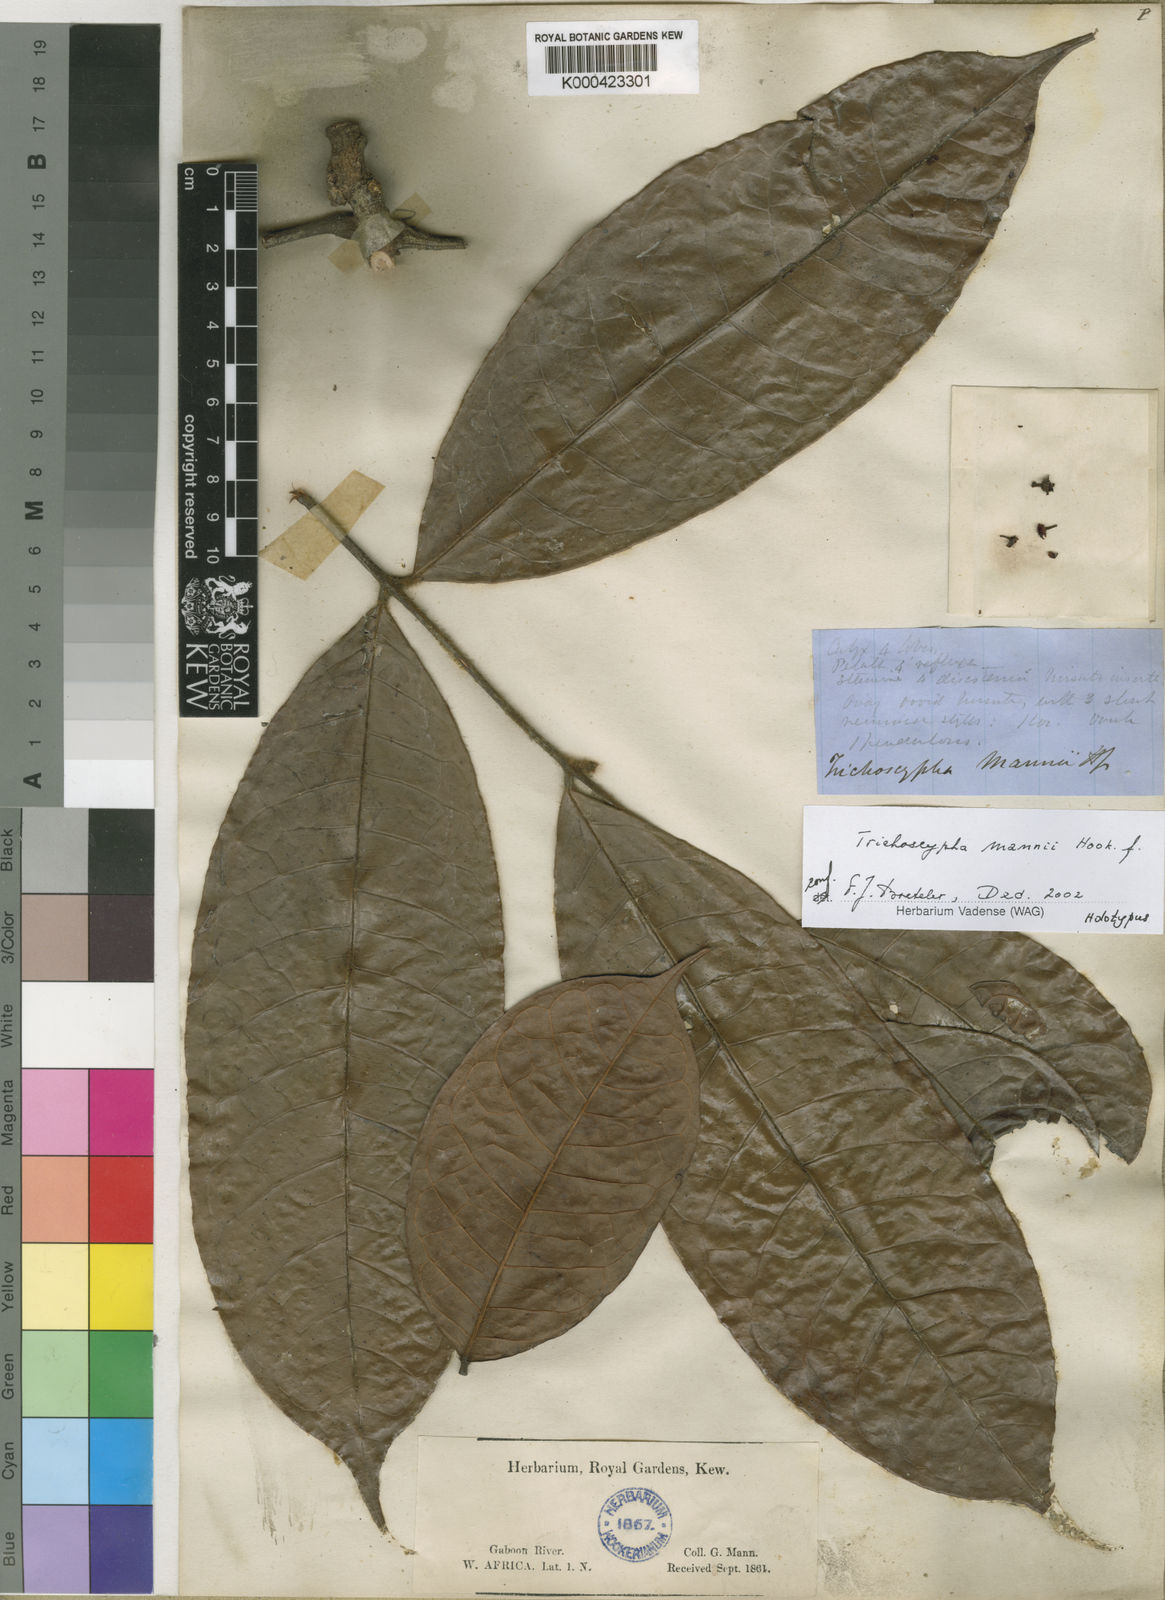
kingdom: Plantae
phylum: Tracheophyta
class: Magnoliopsida
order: Sapindales
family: Anacardiaceae
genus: Trichoscypha
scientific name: Trichoscypha mannii
